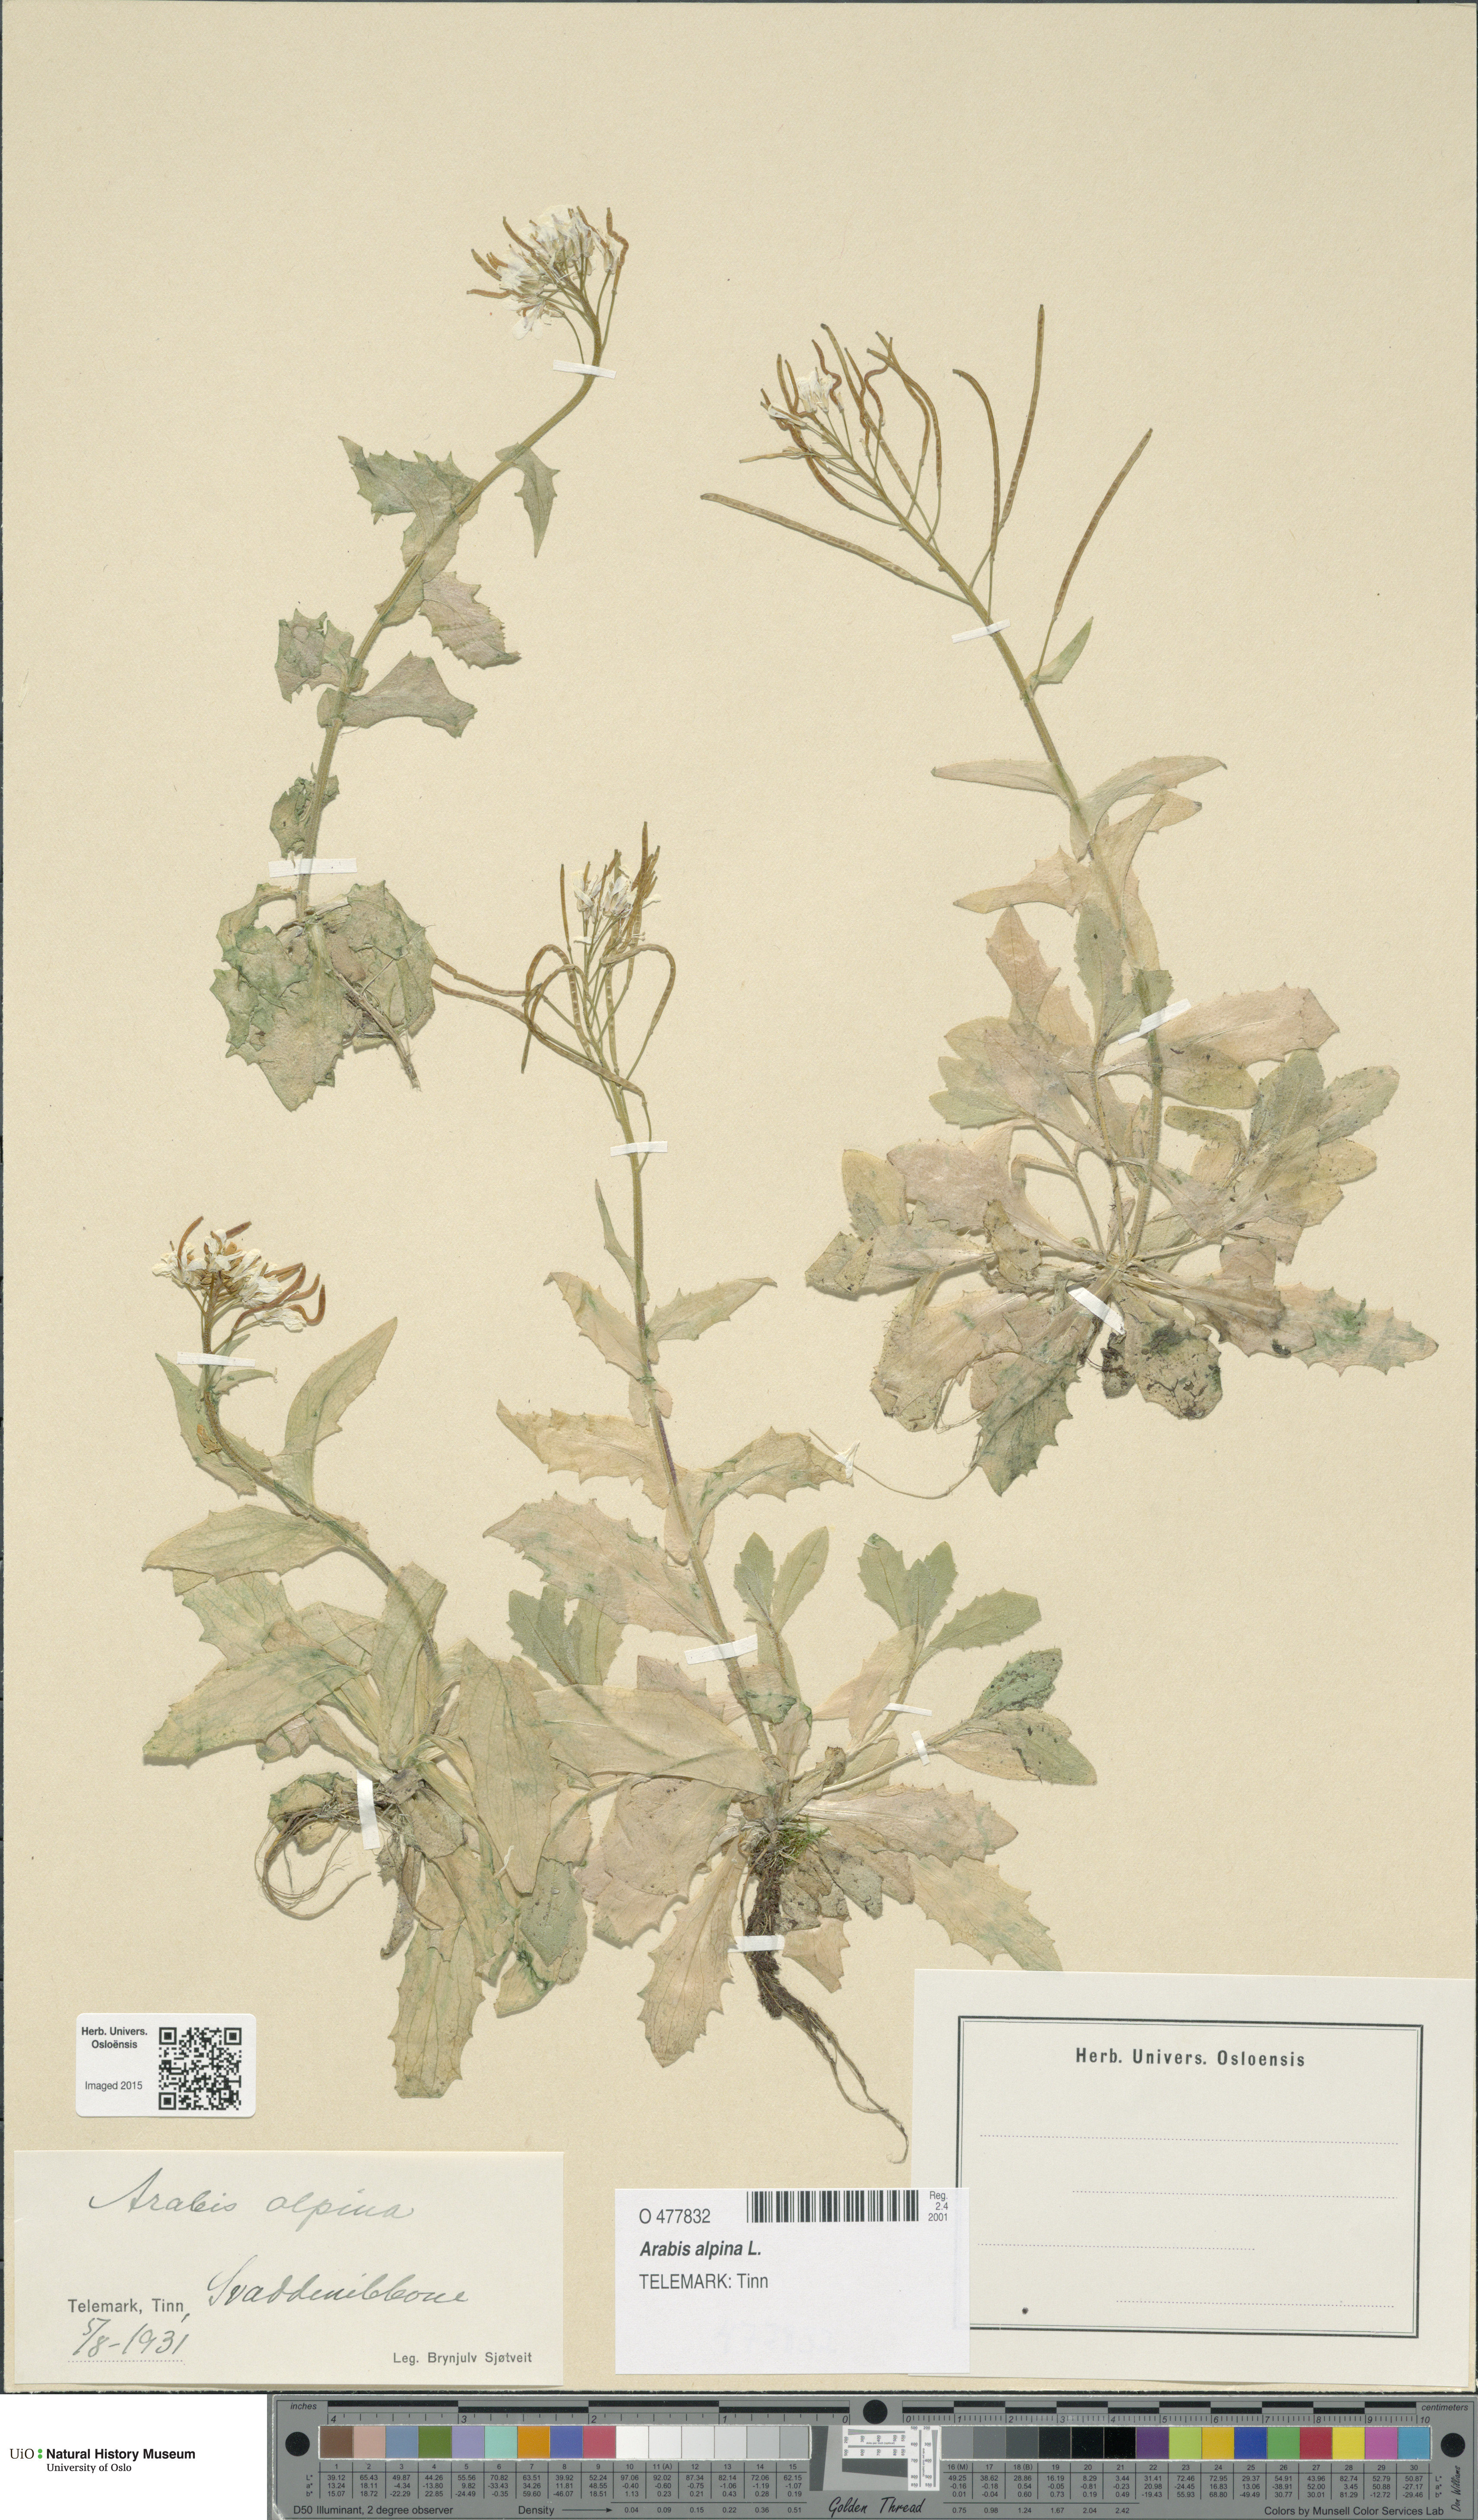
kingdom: Plantae
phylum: Tracheophyta
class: Magnoliopsida
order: Brassicales
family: Brassicaceae
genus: Arabis
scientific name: Arabis alpina
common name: Alpine rock-cress
